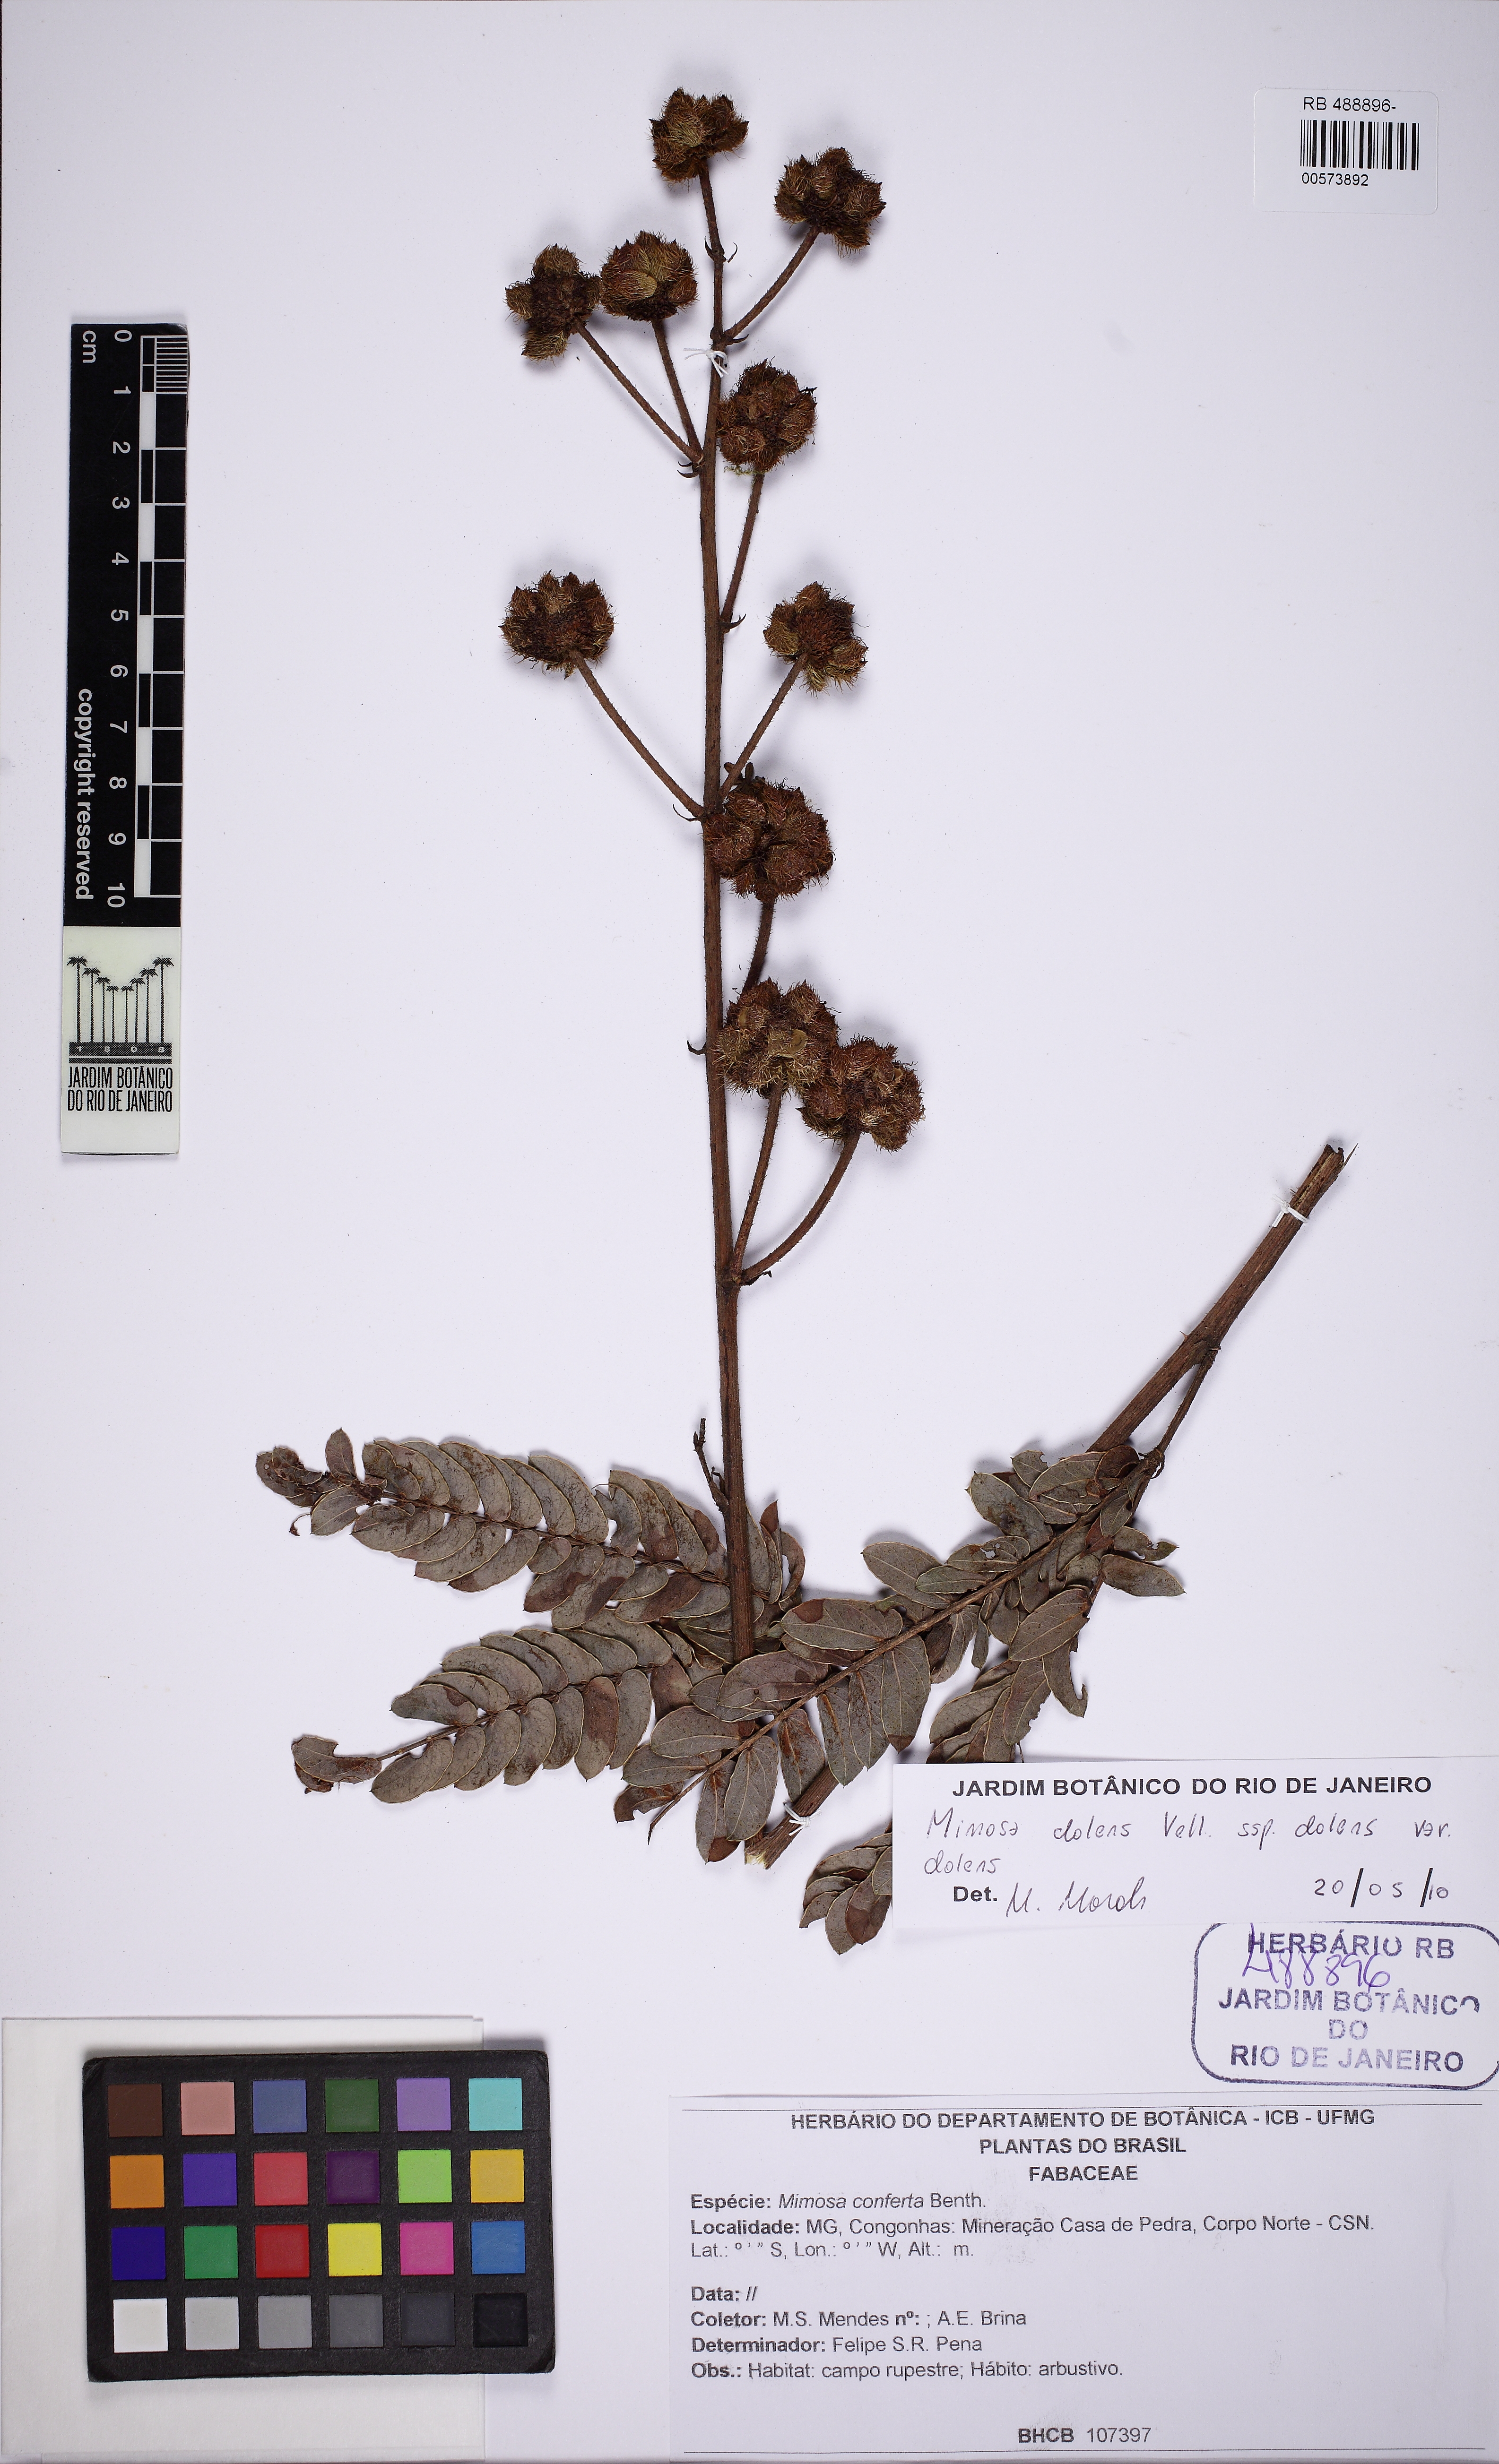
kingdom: Plantae
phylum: Tracheophyta
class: Magnoliopsida
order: Fabales
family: Fabaceae
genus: Mimosa
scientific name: Mimosa dolens
